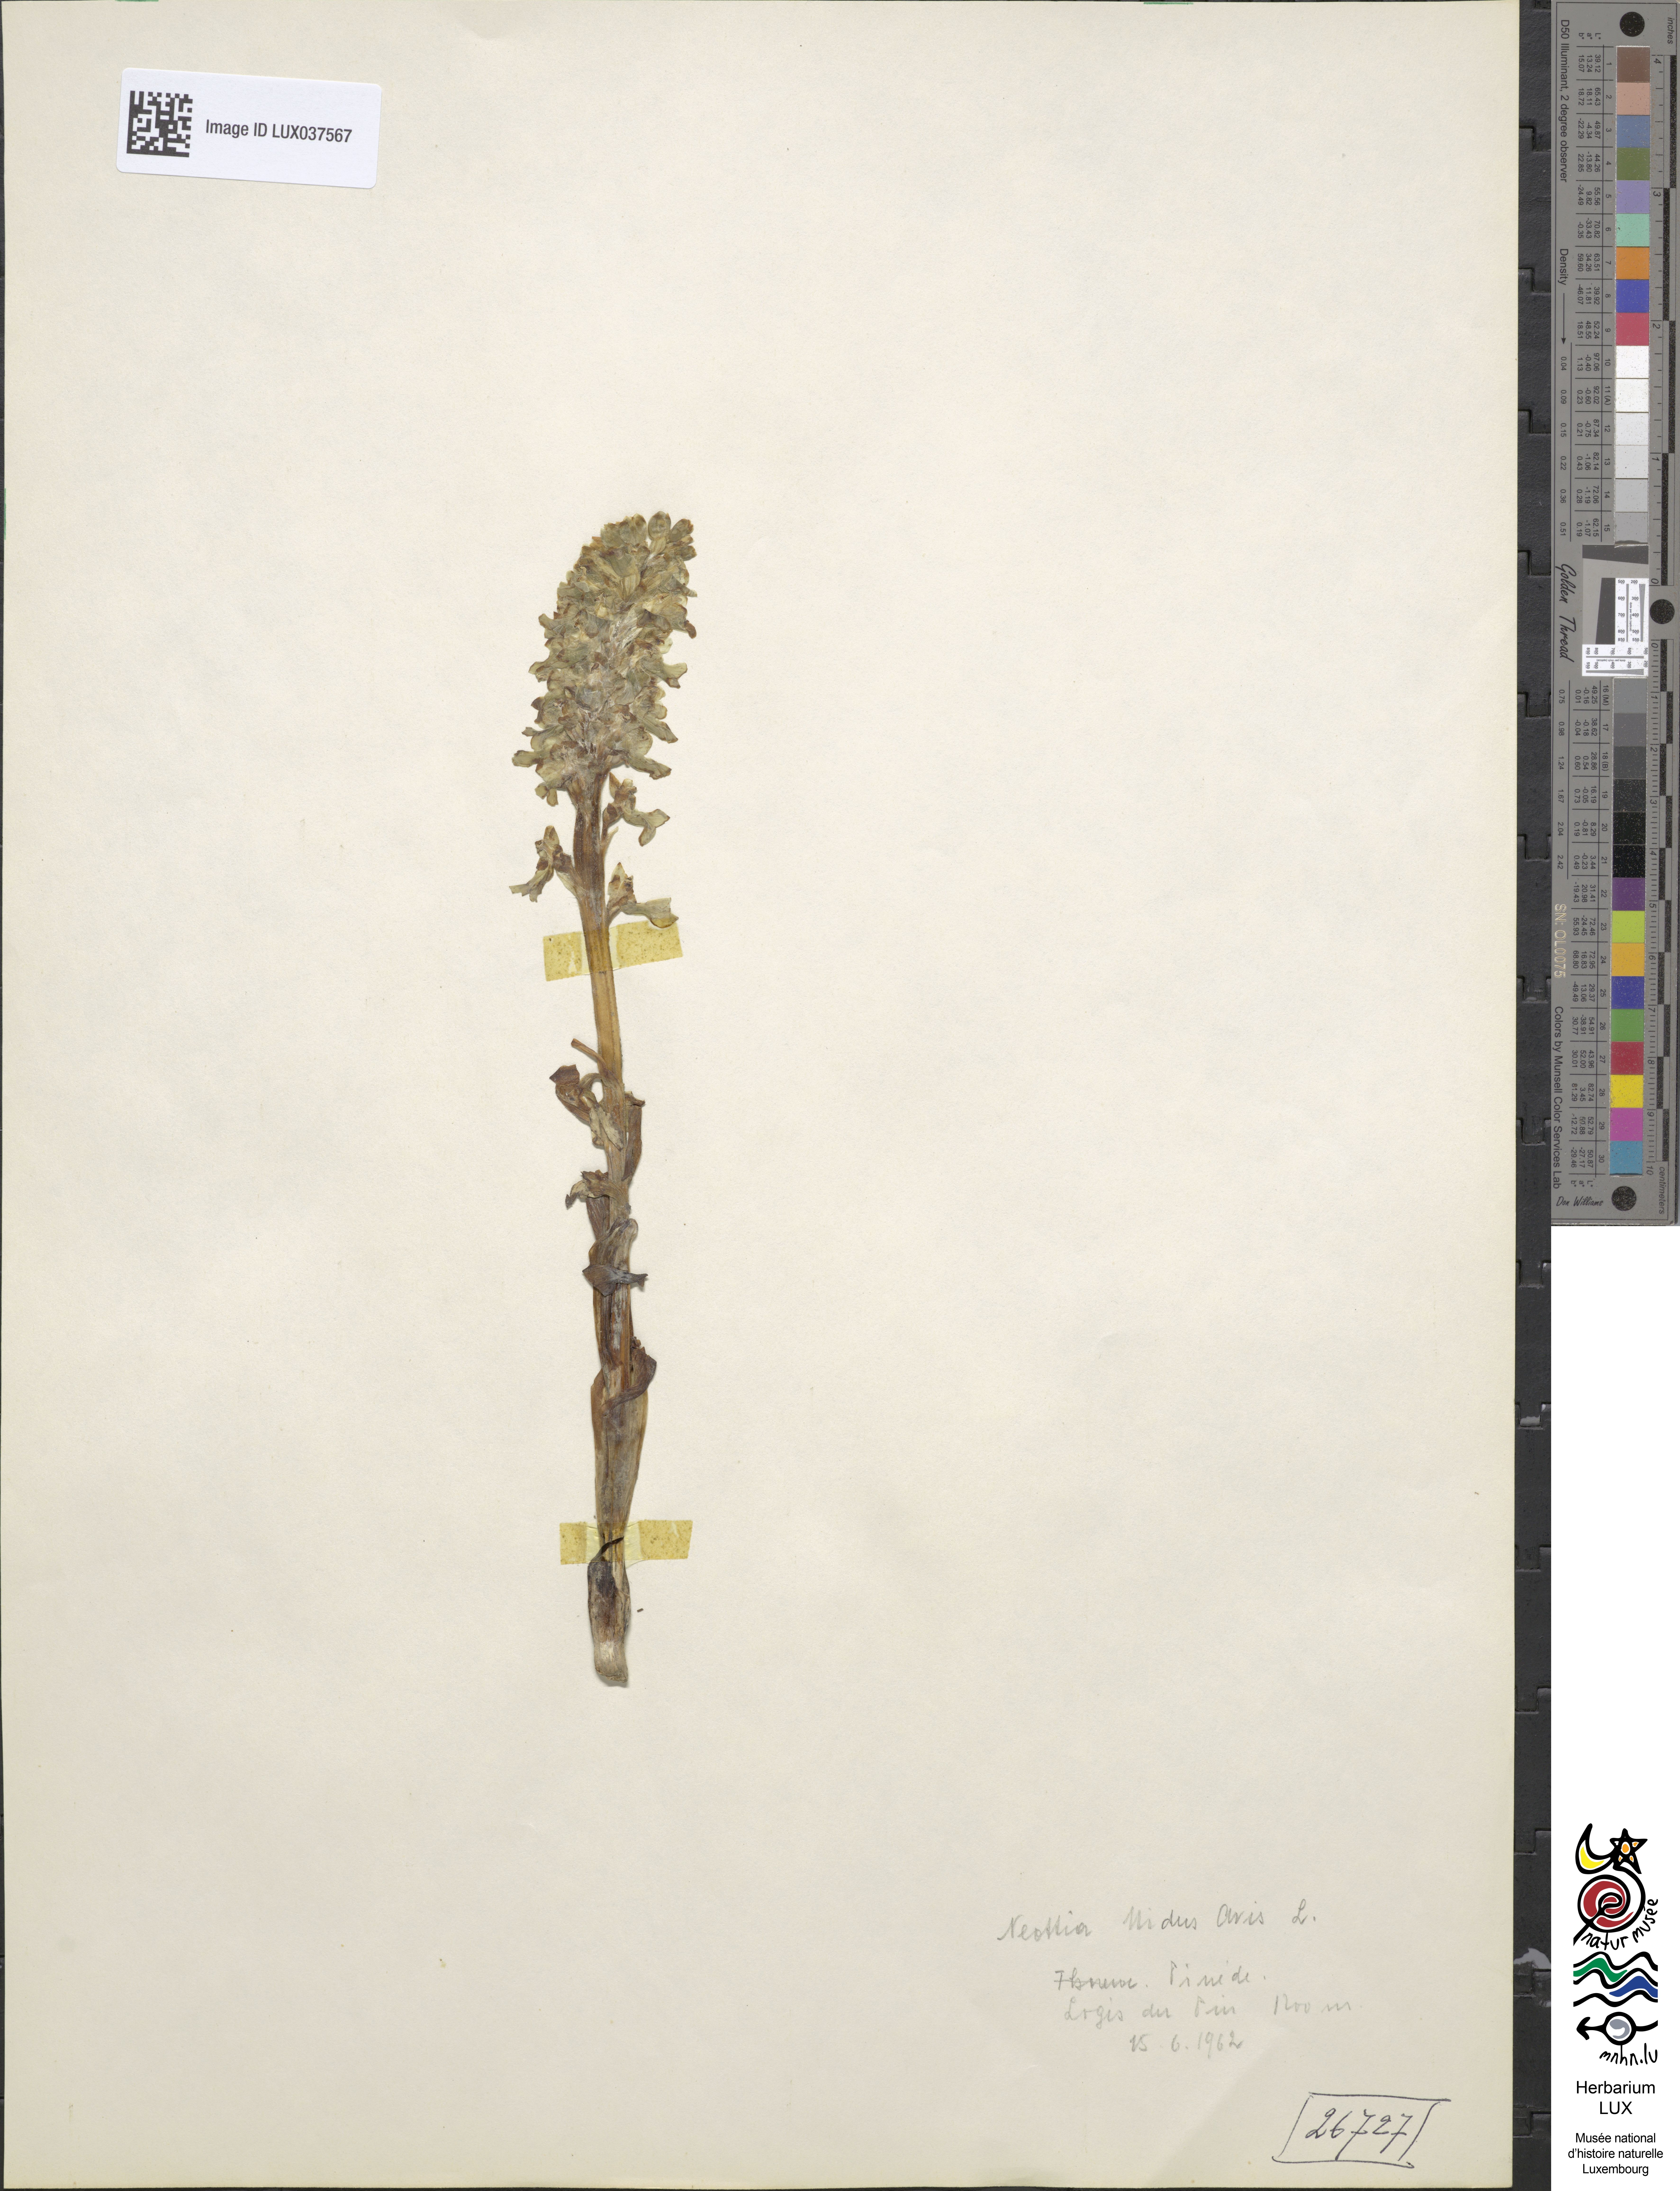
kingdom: Plantae
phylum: Tracheophyta
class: Liliopsida
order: Asparagales
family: Orchidaceae
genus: Neottia
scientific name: Neottia nidus-avis
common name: Bird's-nest orchid
